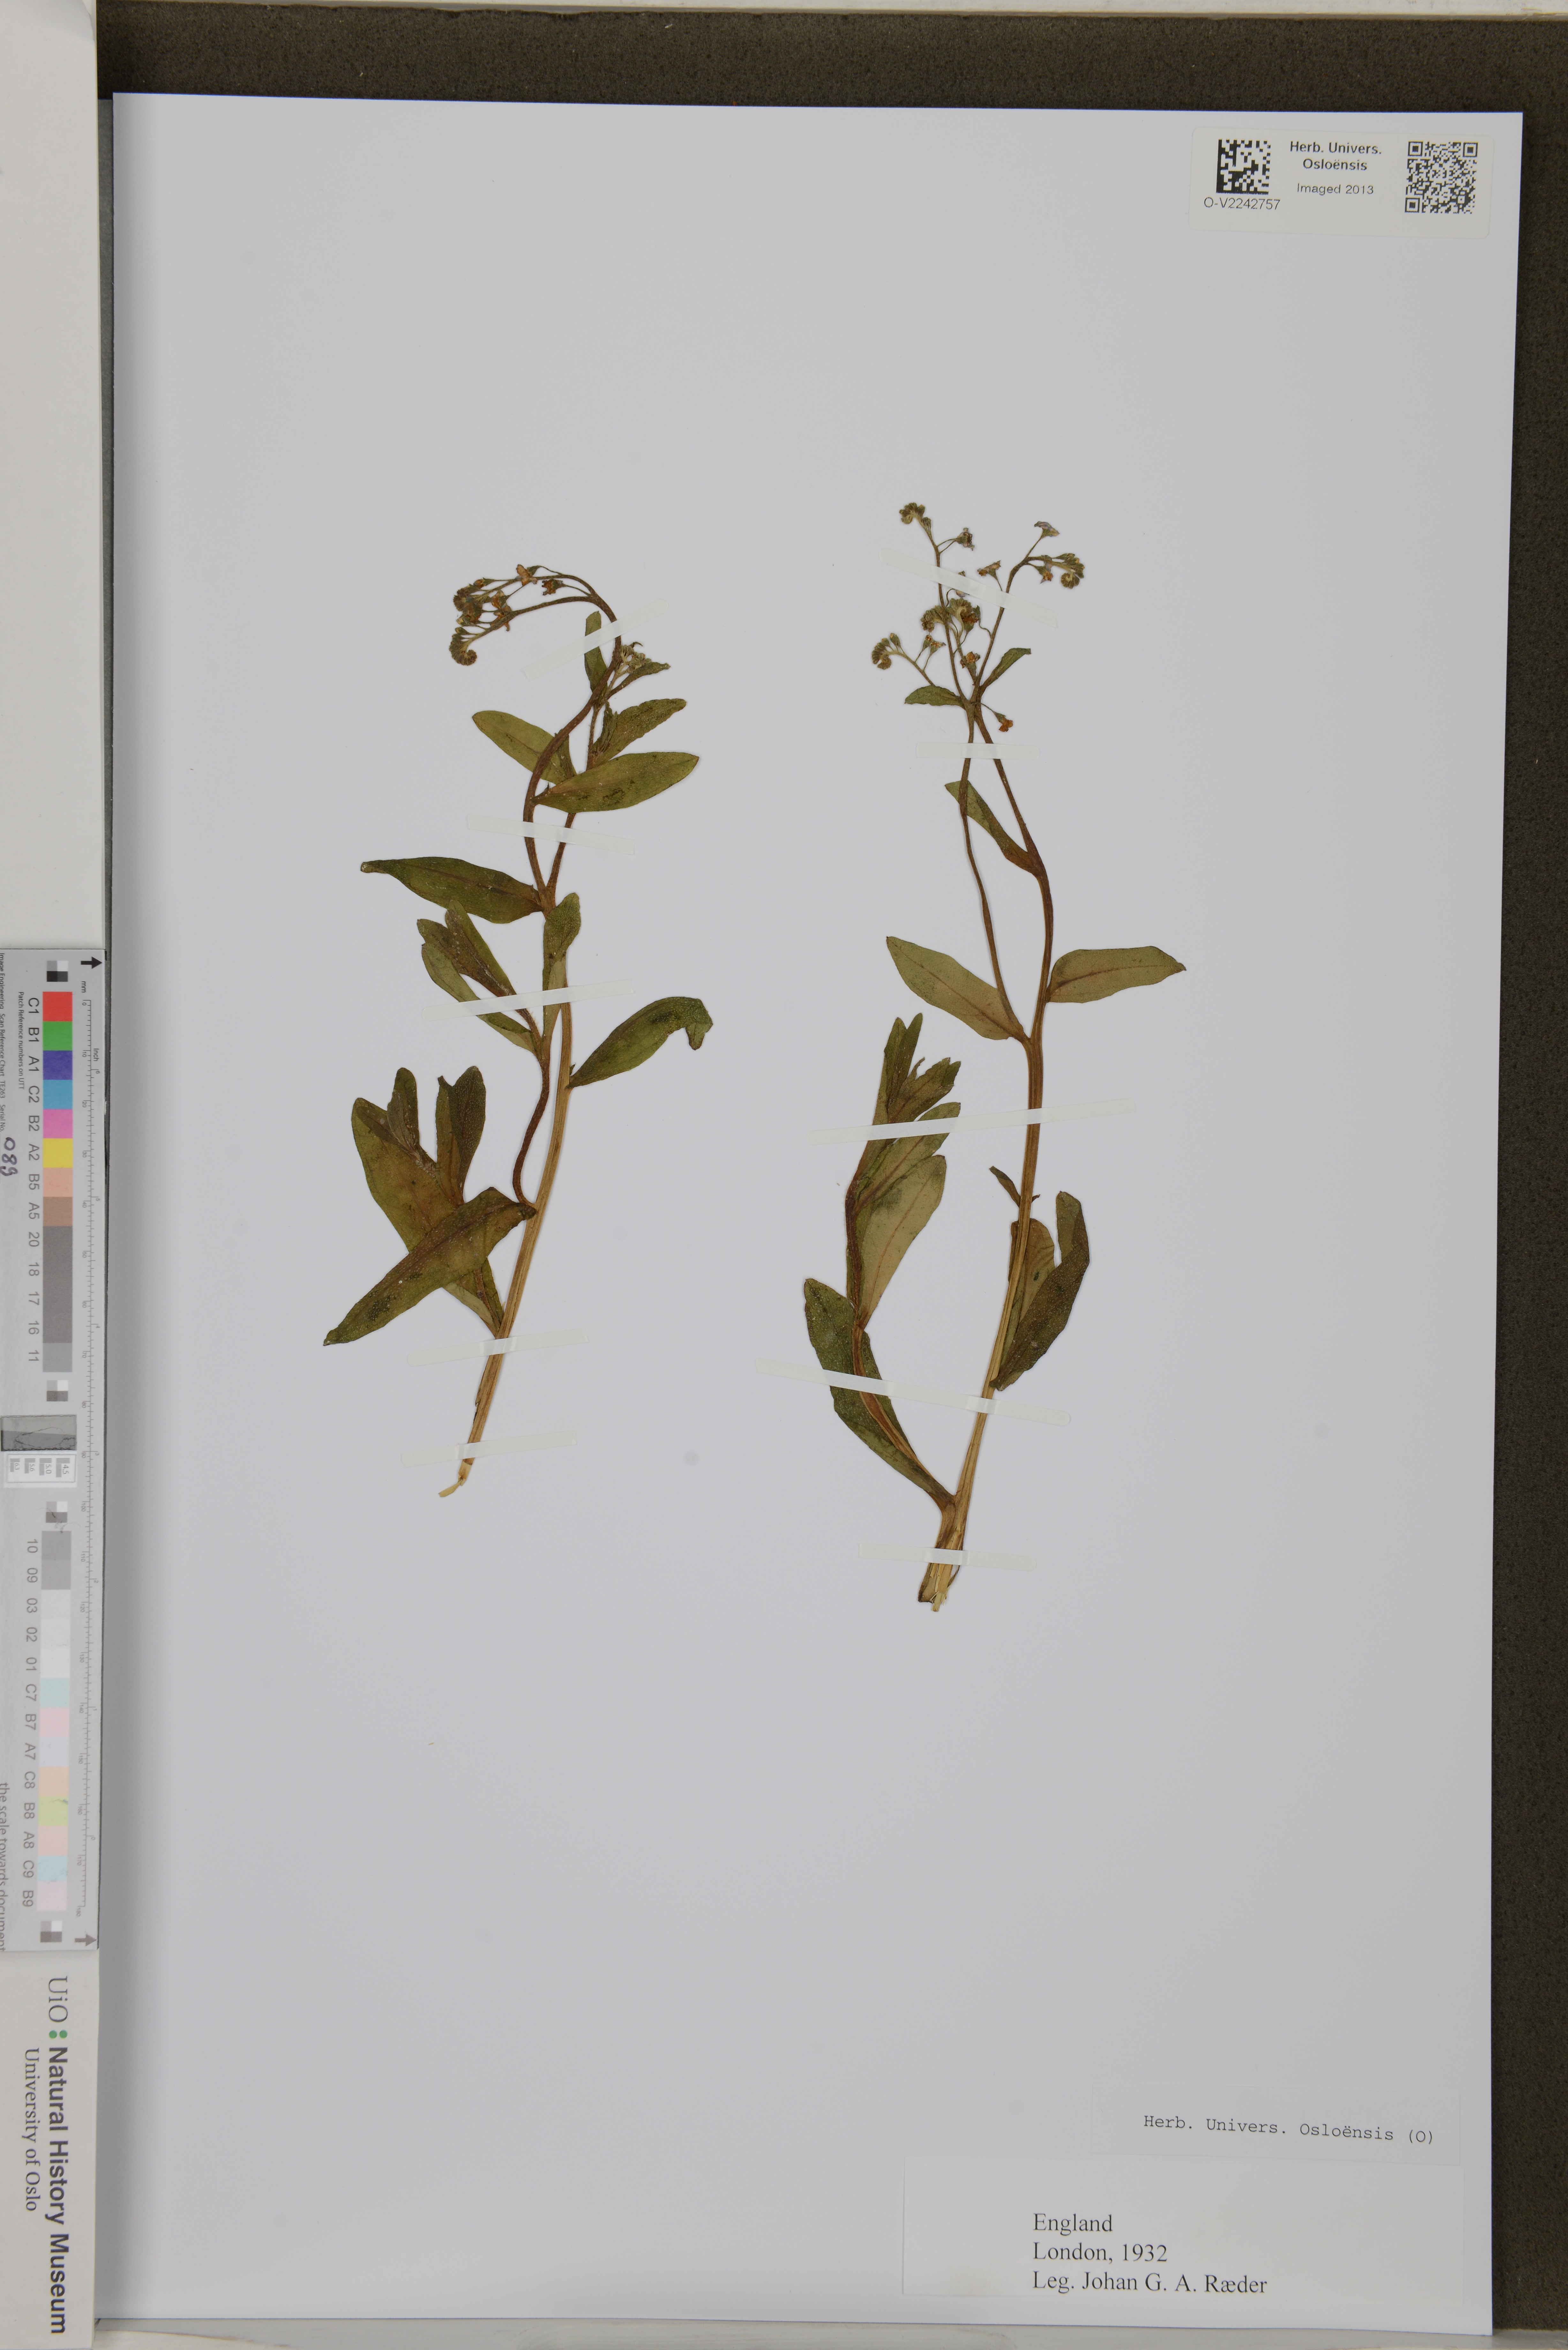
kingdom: Plantae
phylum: Tracheophyta
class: Magnoliopsida
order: Boraginales
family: Boraginaceae
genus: Myosotis
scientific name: Myosotis
